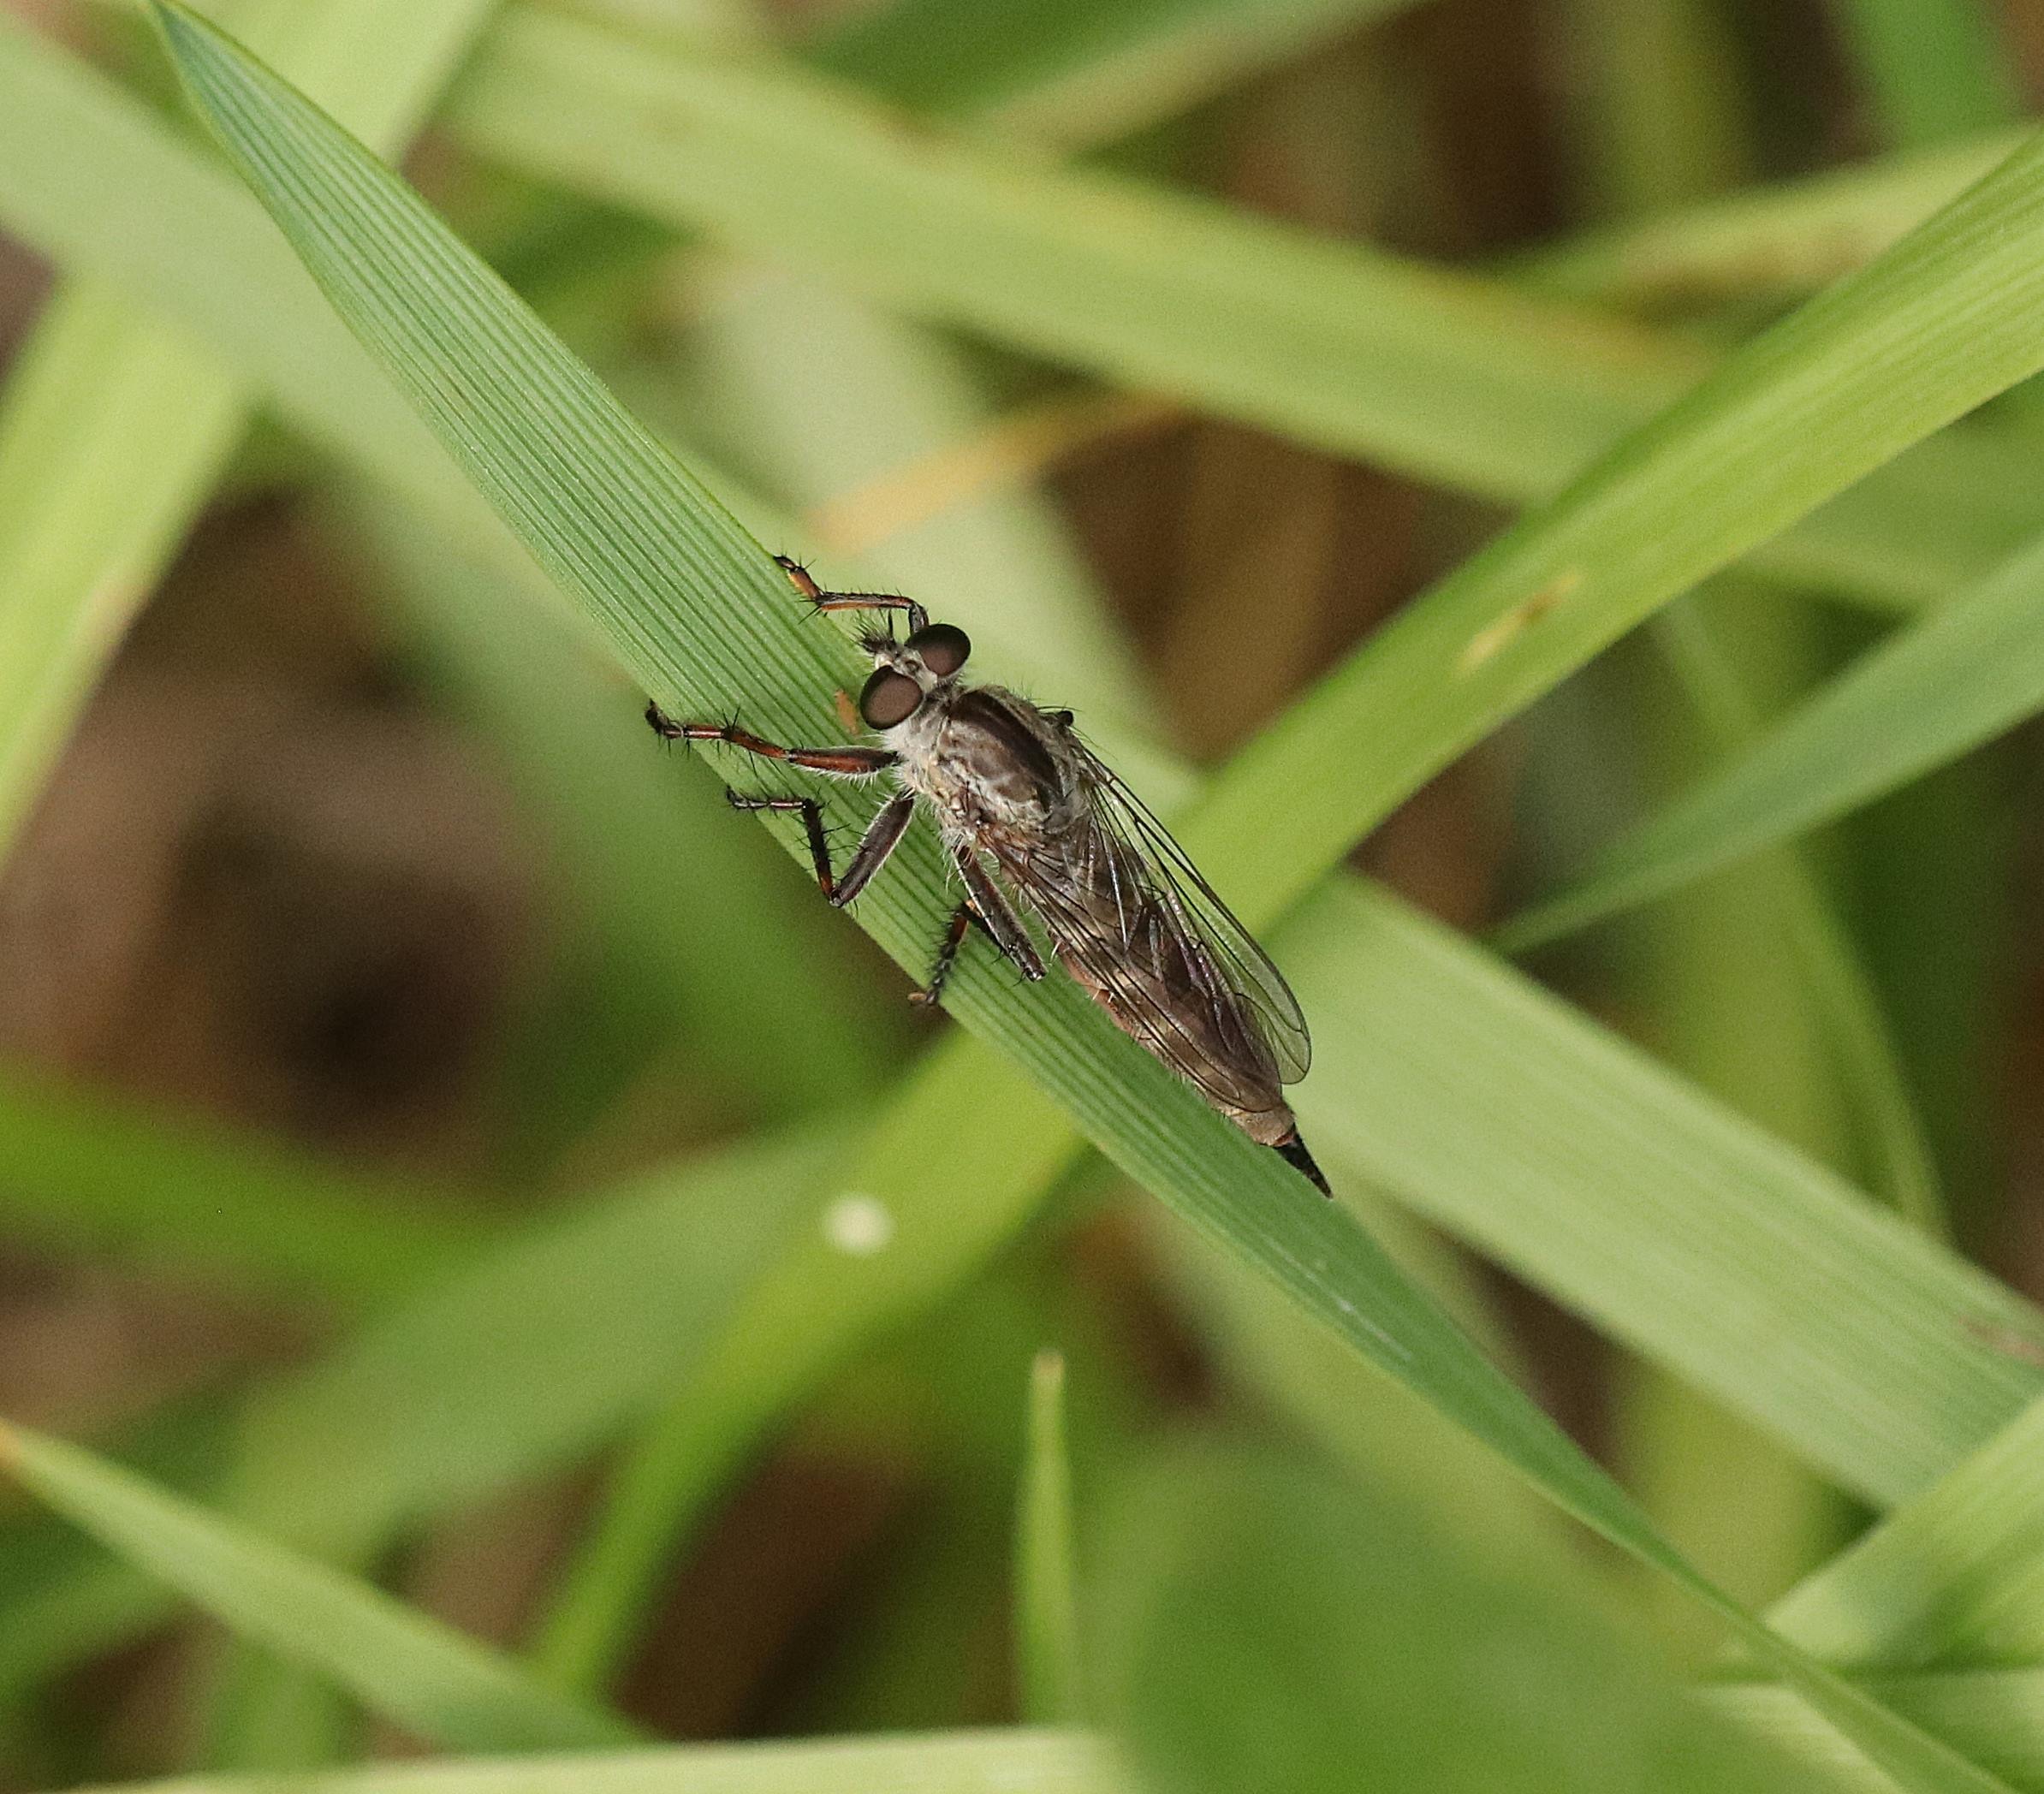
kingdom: Animalia
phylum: Arthropoda
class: Insecta
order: Diptera
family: Asilidae
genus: Machimus
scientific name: Machimus atricapillus
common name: Sort hårrovflue
